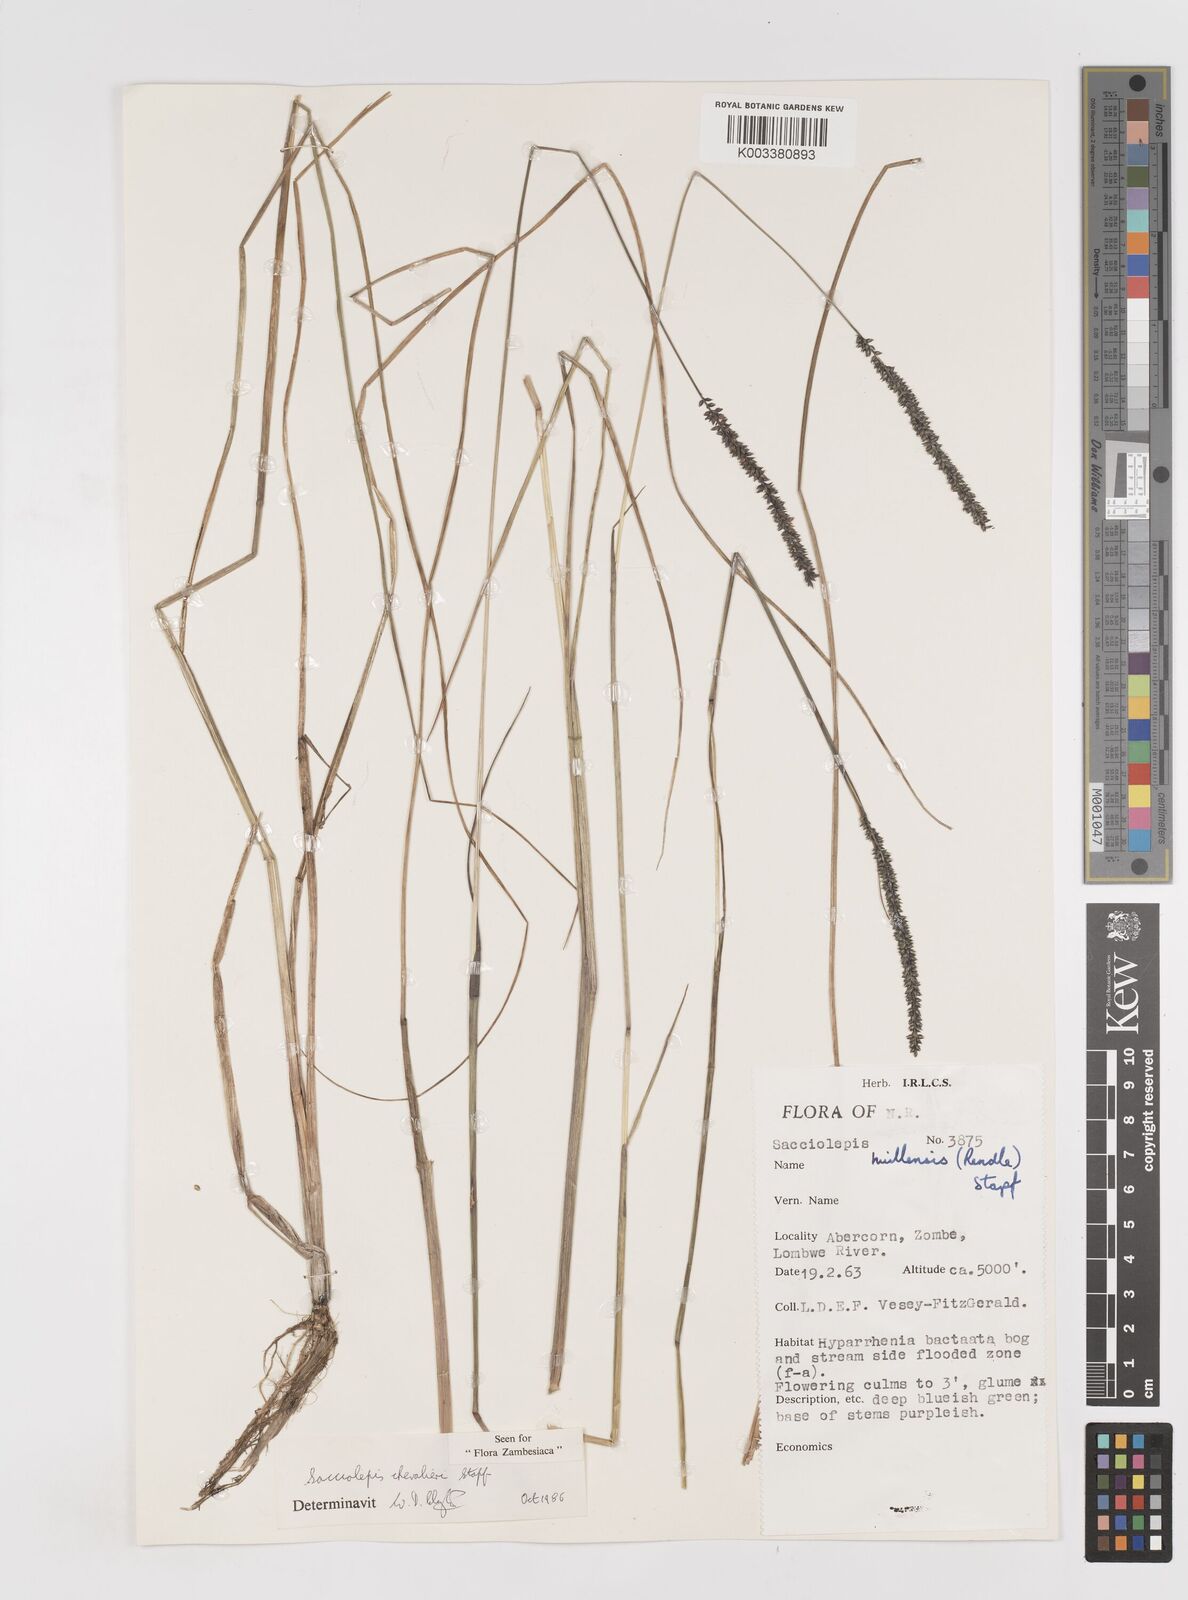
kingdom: Plantae
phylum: Tracheophyta
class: Liliopsida
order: Poales
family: Poaceae
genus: Sacciolepis
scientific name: Sacciolepis chevalieri
